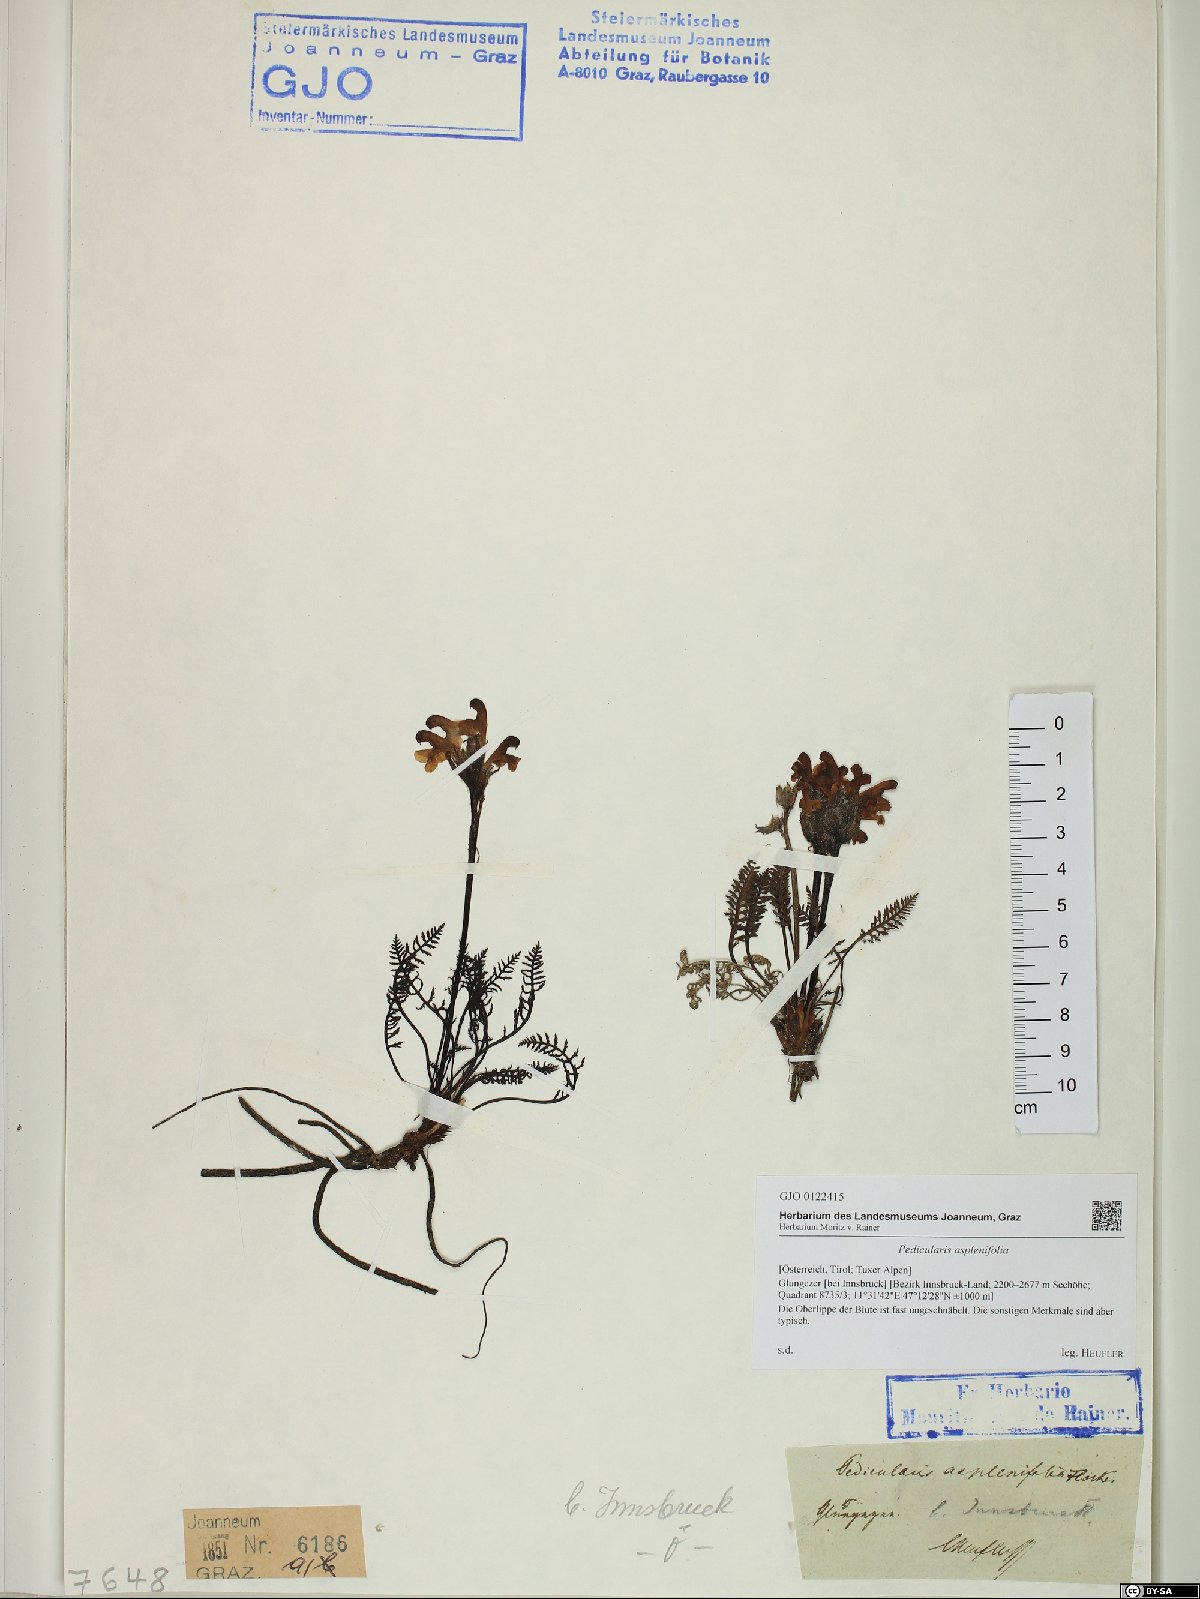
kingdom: Plantae
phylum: Tracheophyta
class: Magnoliopsida
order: Lamiales
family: Orobanchaceae
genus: Pedicularis
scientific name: Pedicularis asplenifolia
